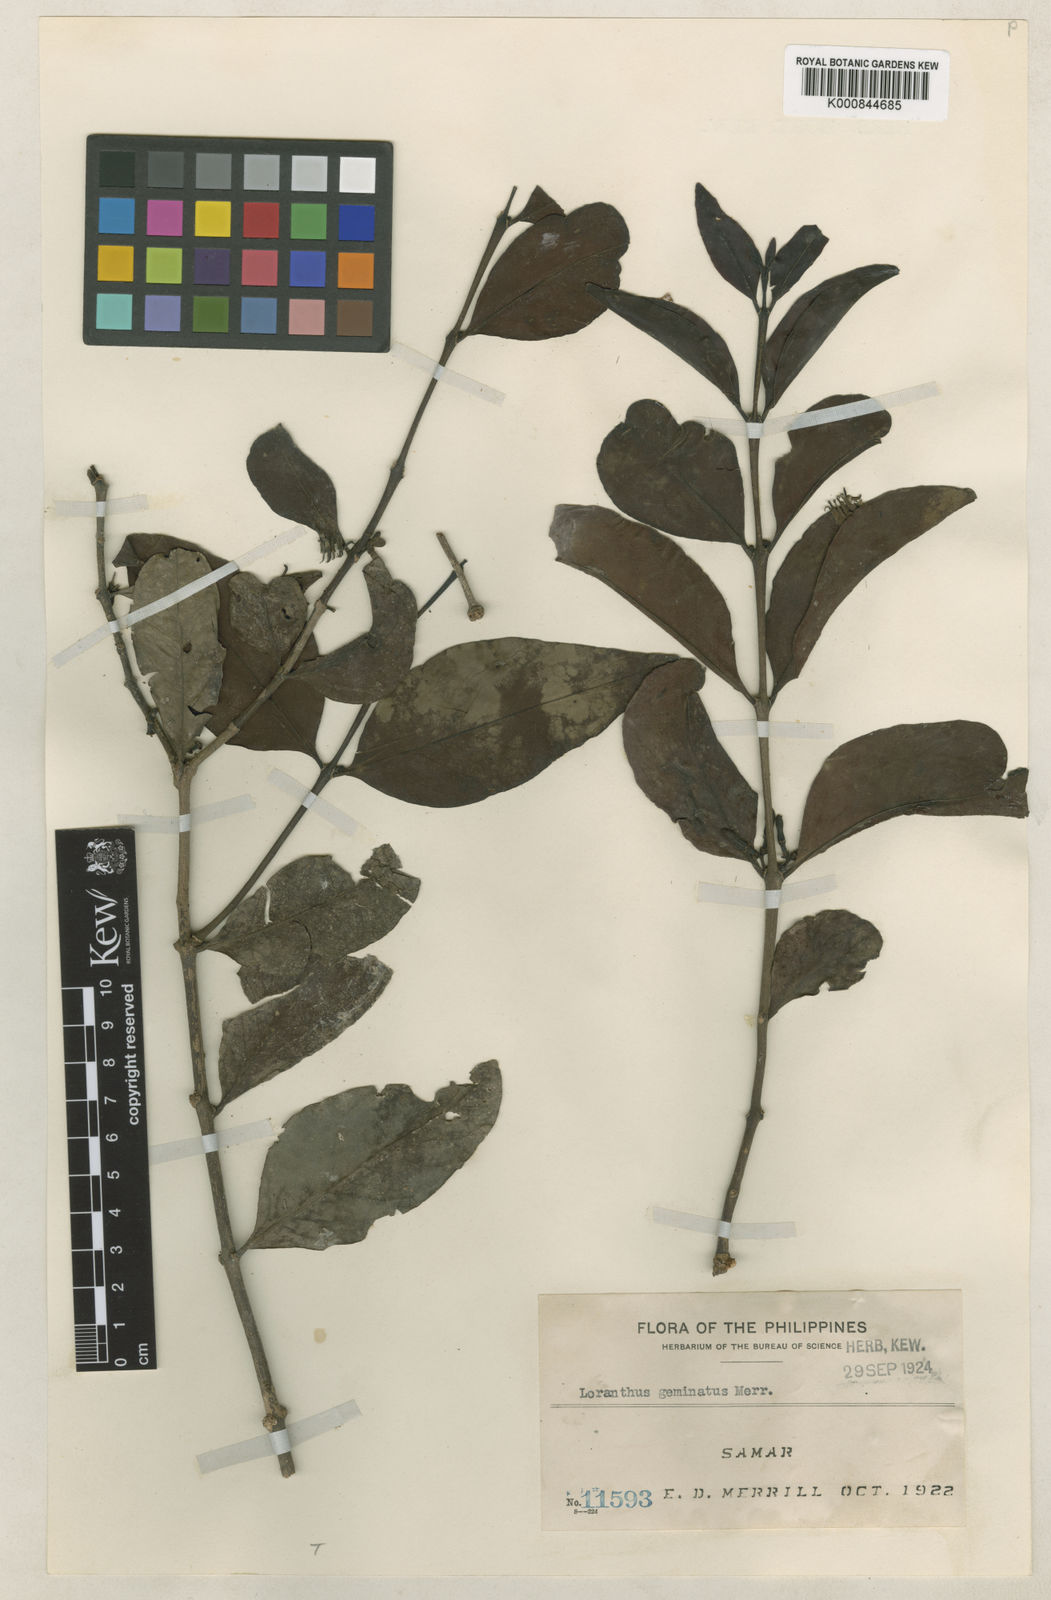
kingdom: Plantae
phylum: Tracheophyta
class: Magnoliopsida
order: Santalales
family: Loranthaceae
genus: Macrosolen
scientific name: Macrosolen geminatus
